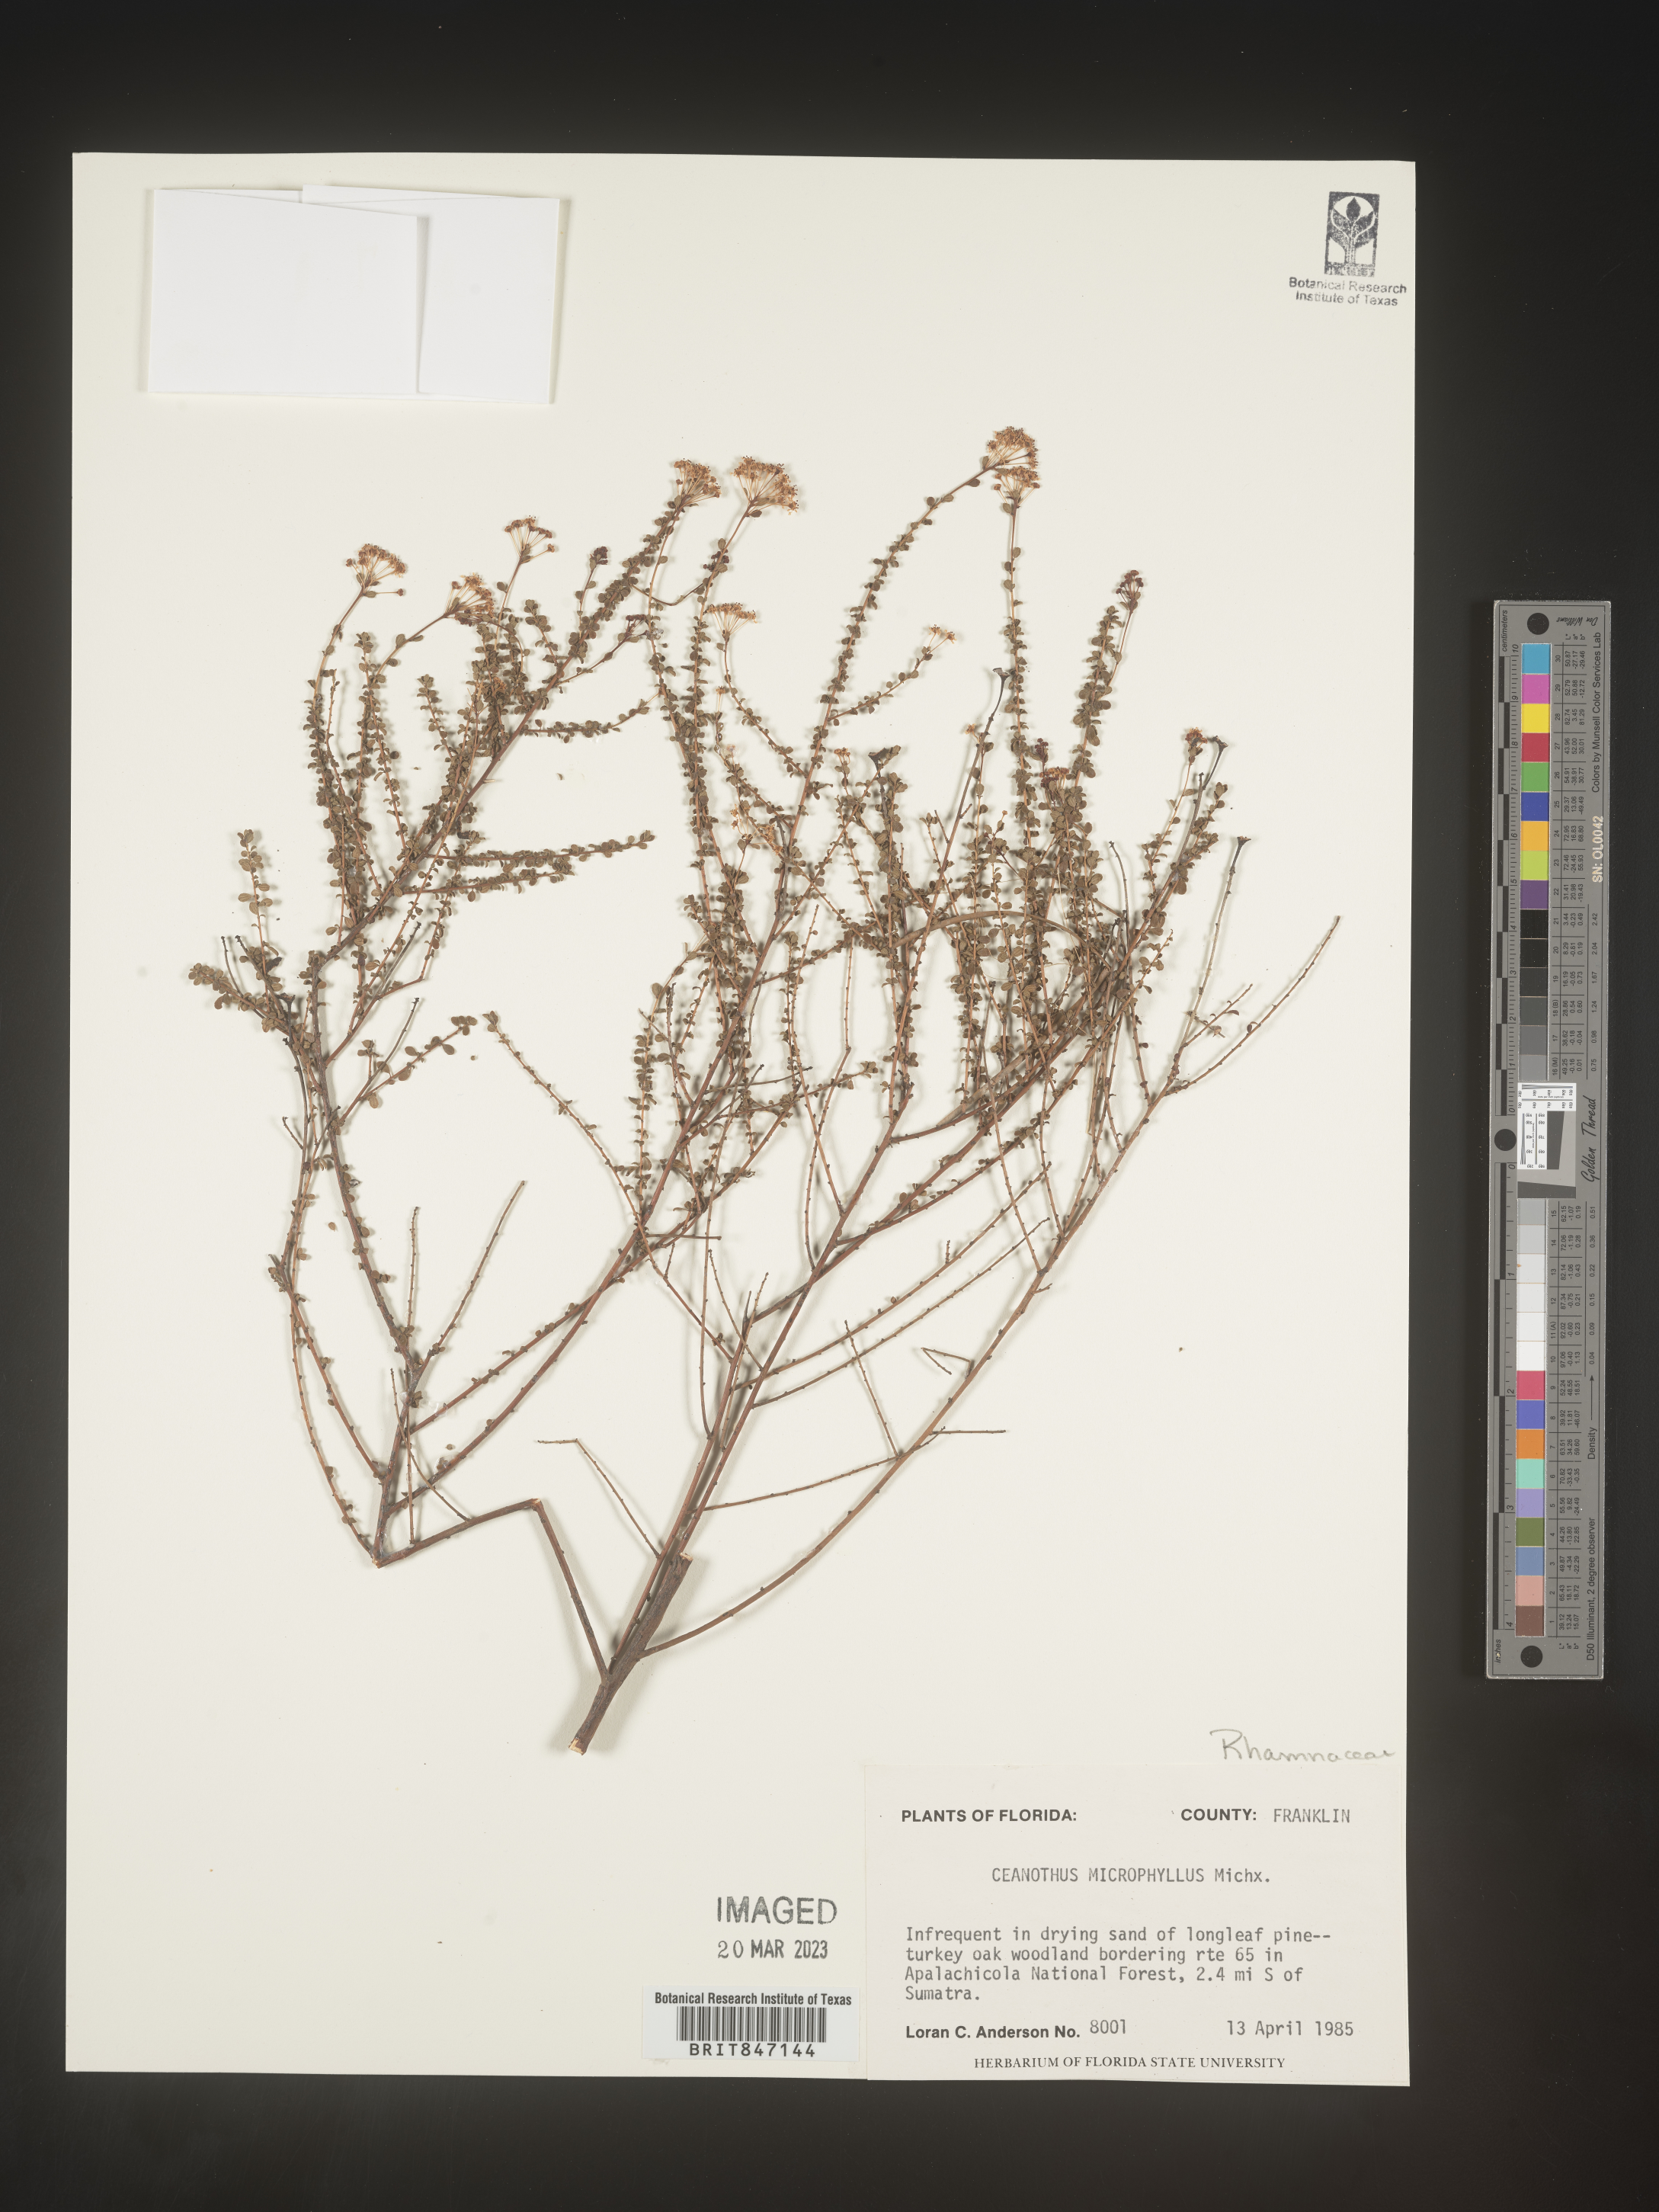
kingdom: Plantae
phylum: Tracheophyta
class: Magnoliopsida
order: Rosales
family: Rhamnaceae
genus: Ceanothus
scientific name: Ceanothus
